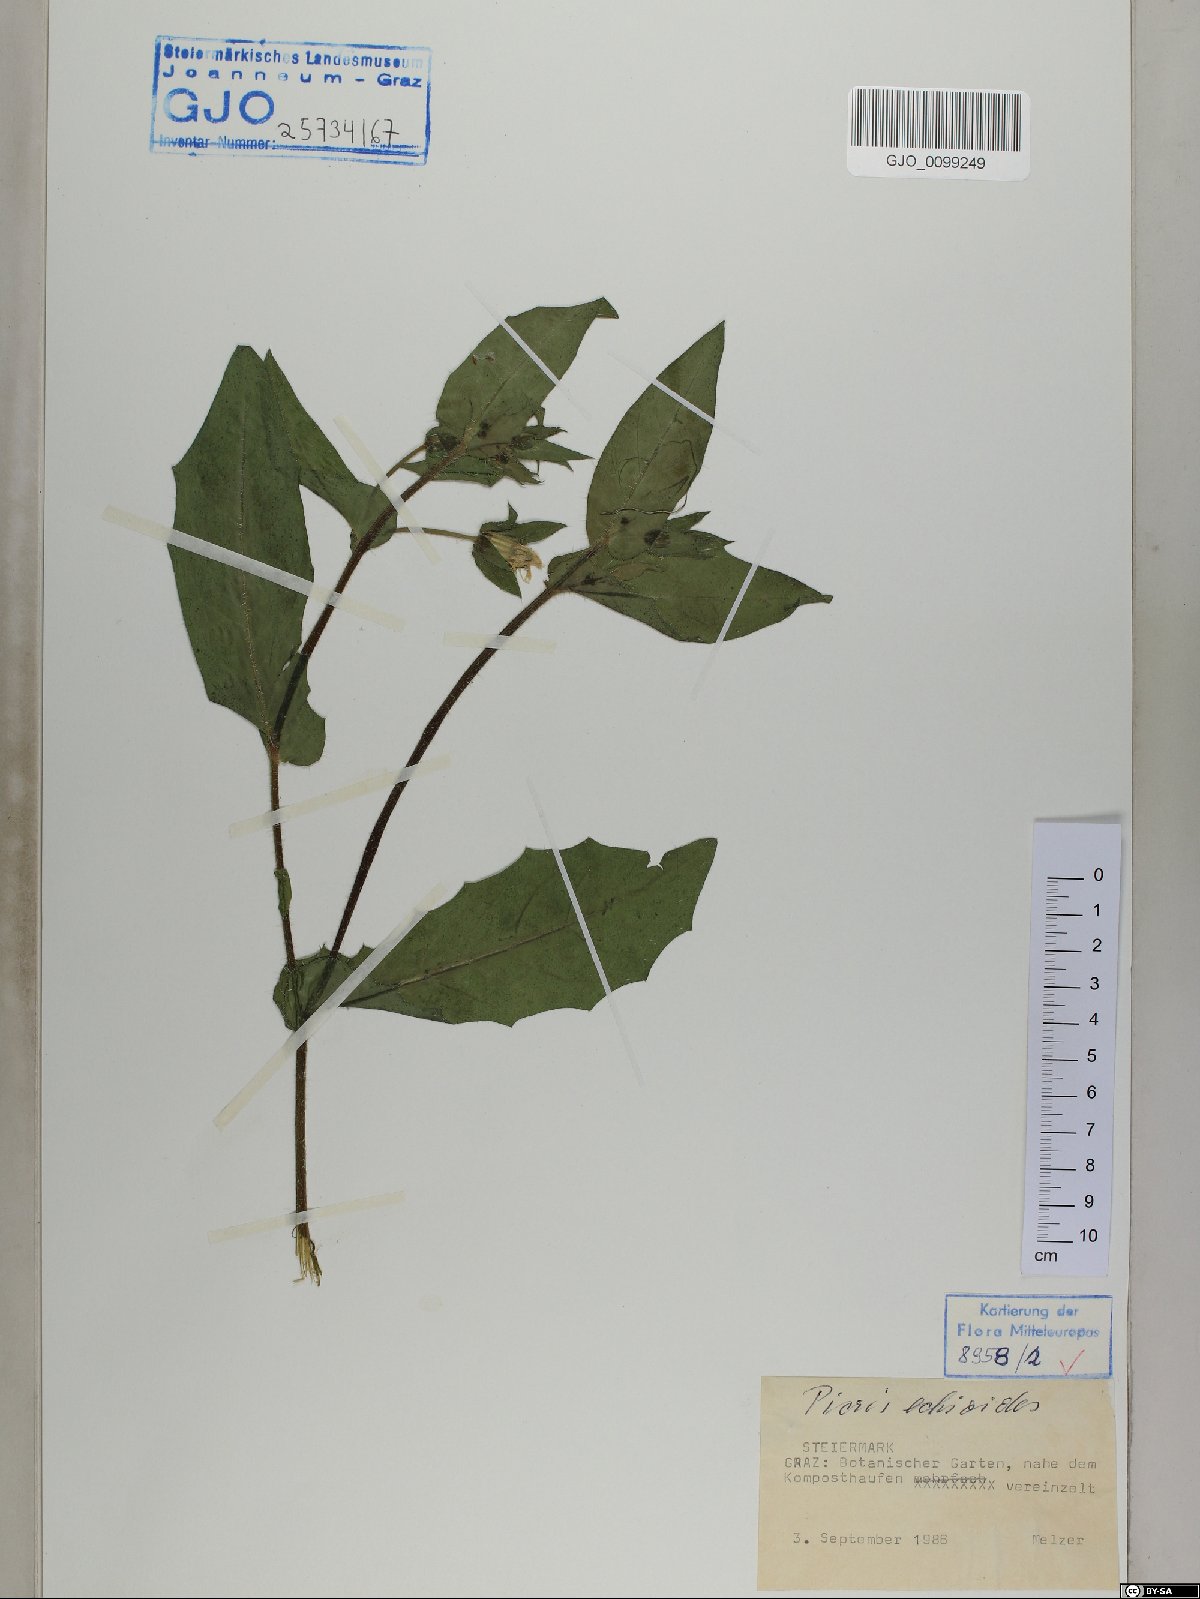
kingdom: Plantae
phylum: Tracheophyta
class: Magnoliopsida
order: Asterales
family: Asteraceae
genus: Helminthotheca
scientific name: Helminthotheca echioides
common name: Ox-tongue
